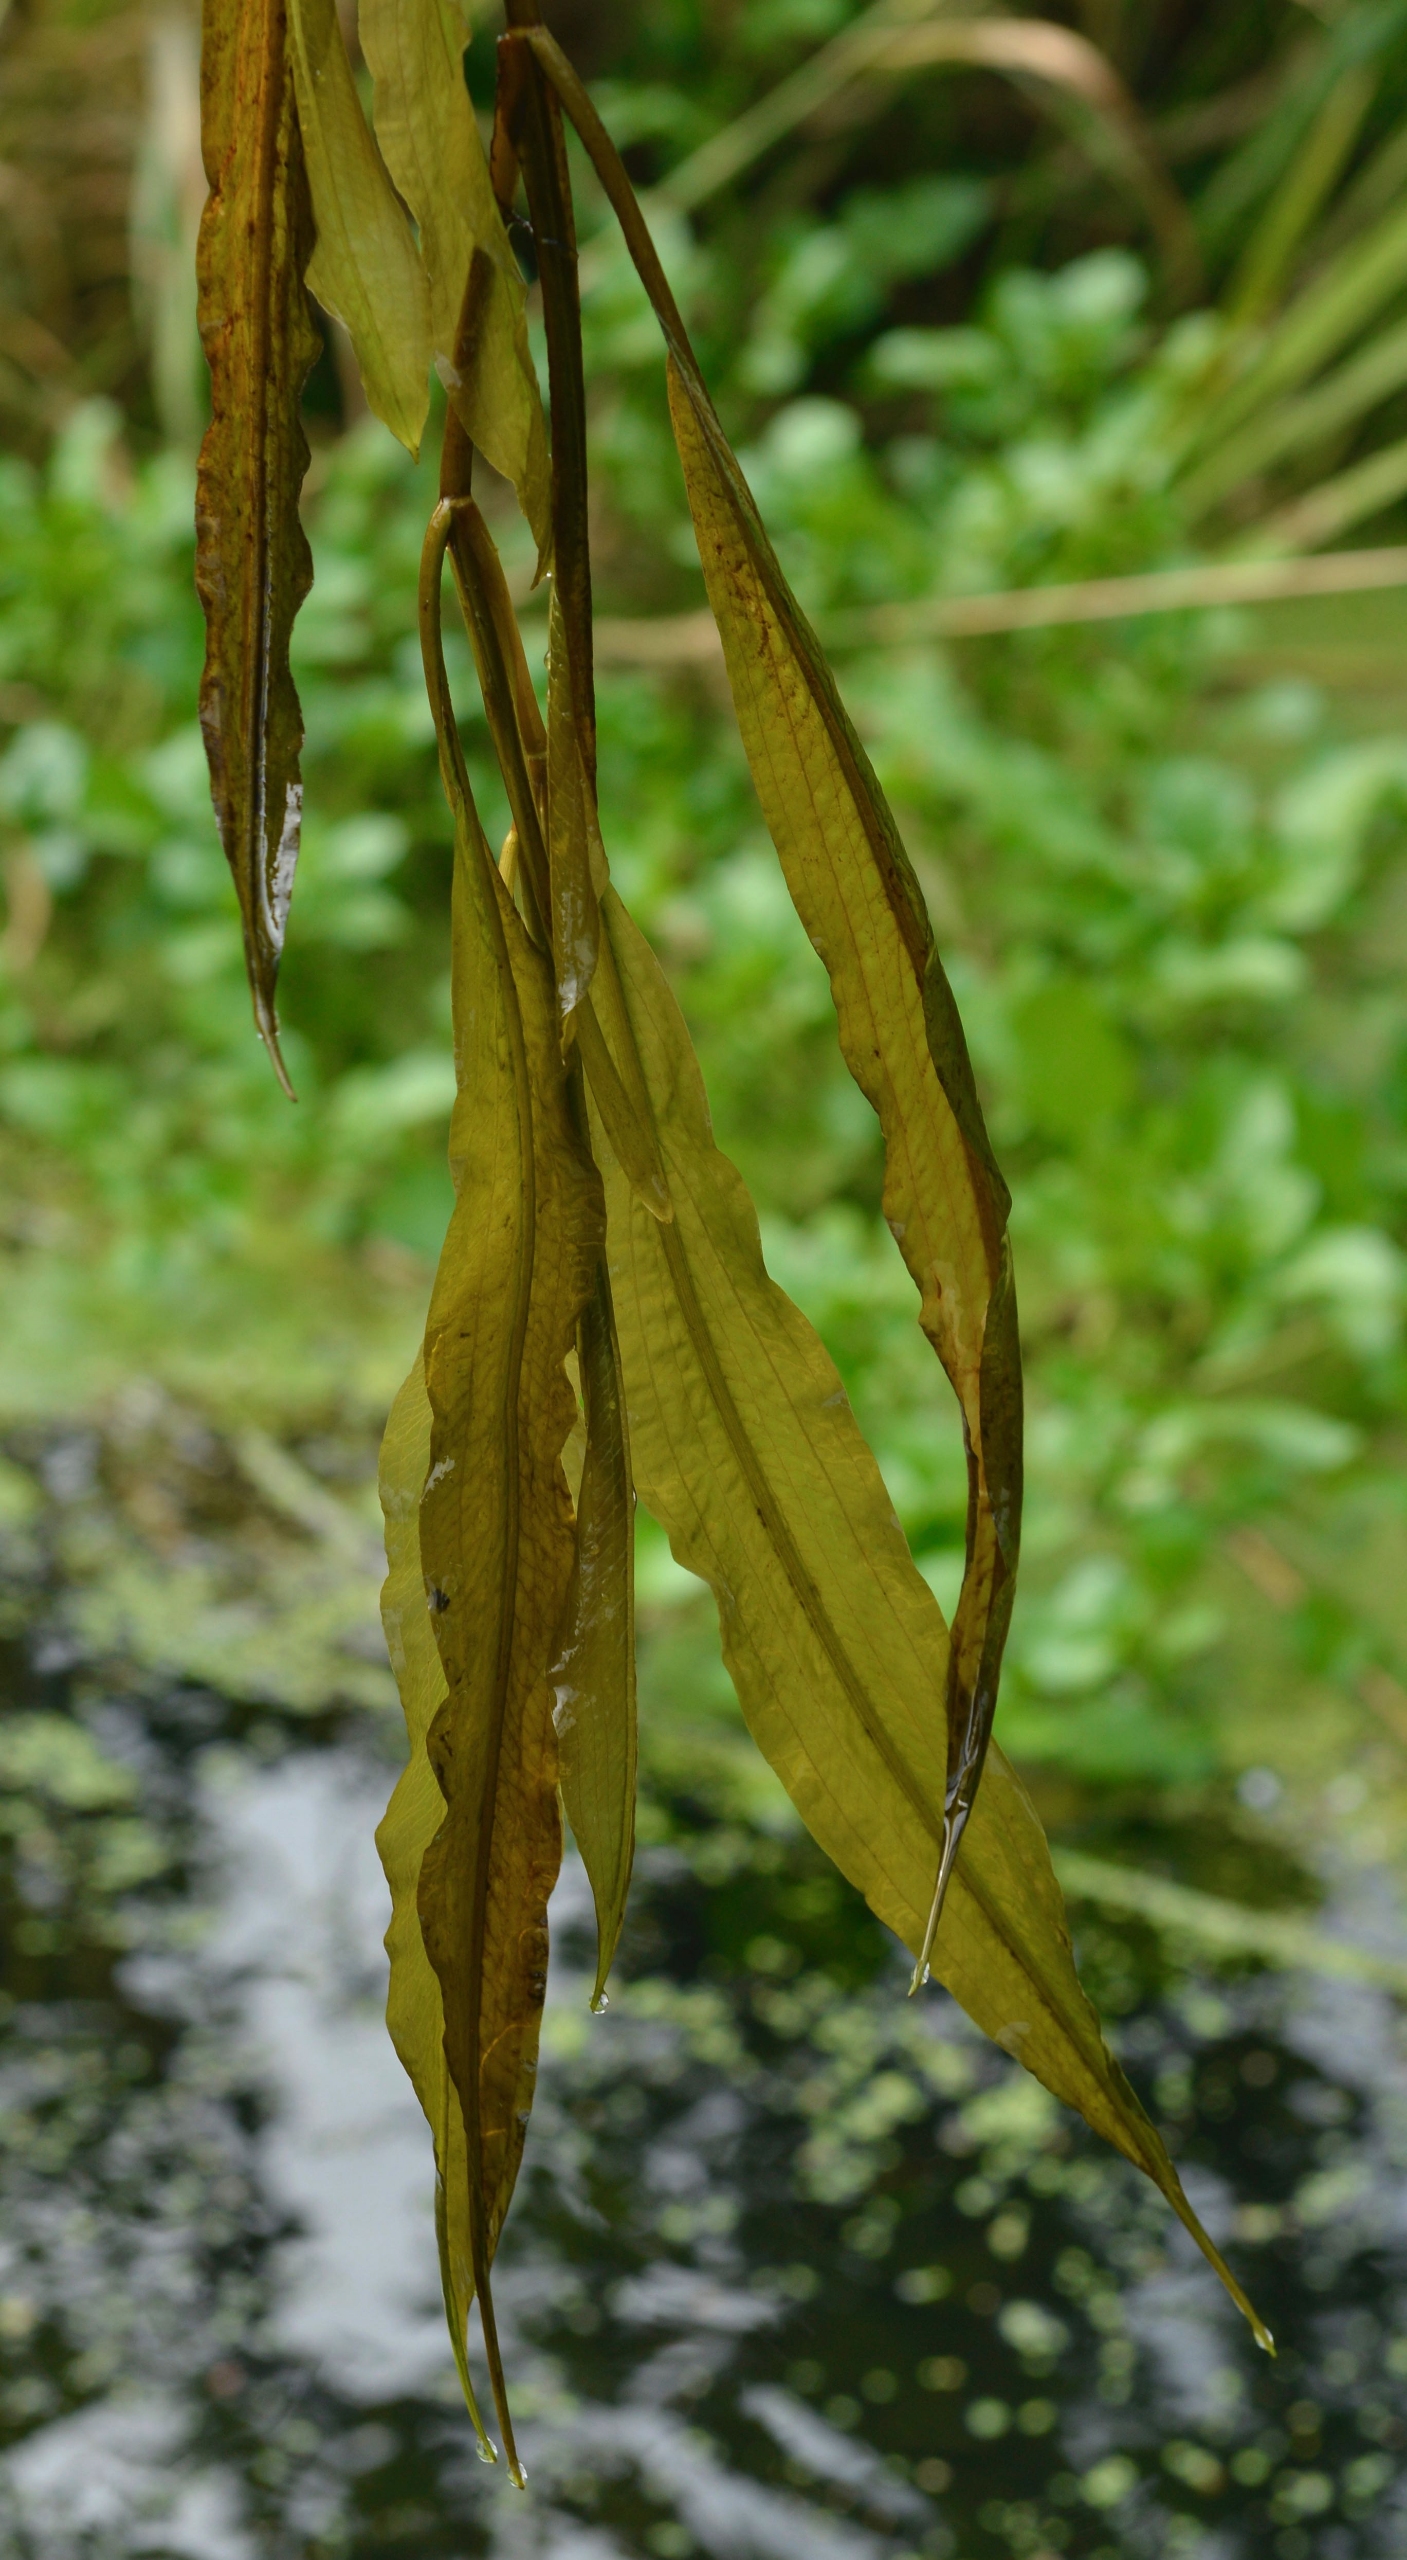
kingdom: Plantae
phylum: Tracheophyta
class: Liliopsida
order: Alismatales
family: Potamogetonaceae
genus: Potamogeton
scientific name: Potamogeton lucens
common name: Glinsende vandaks
